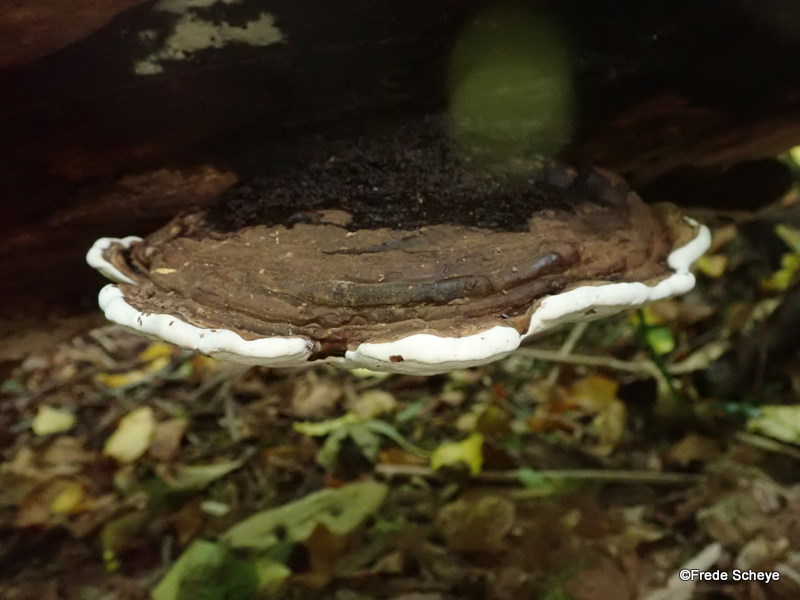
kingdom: Fungi
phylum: Basidiomycota
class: Agaricomycetes
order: Polyporales
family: Polyporaceae
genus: Ganoderma
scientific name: Ganoderma applanatum
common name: flad lakporesvamp
